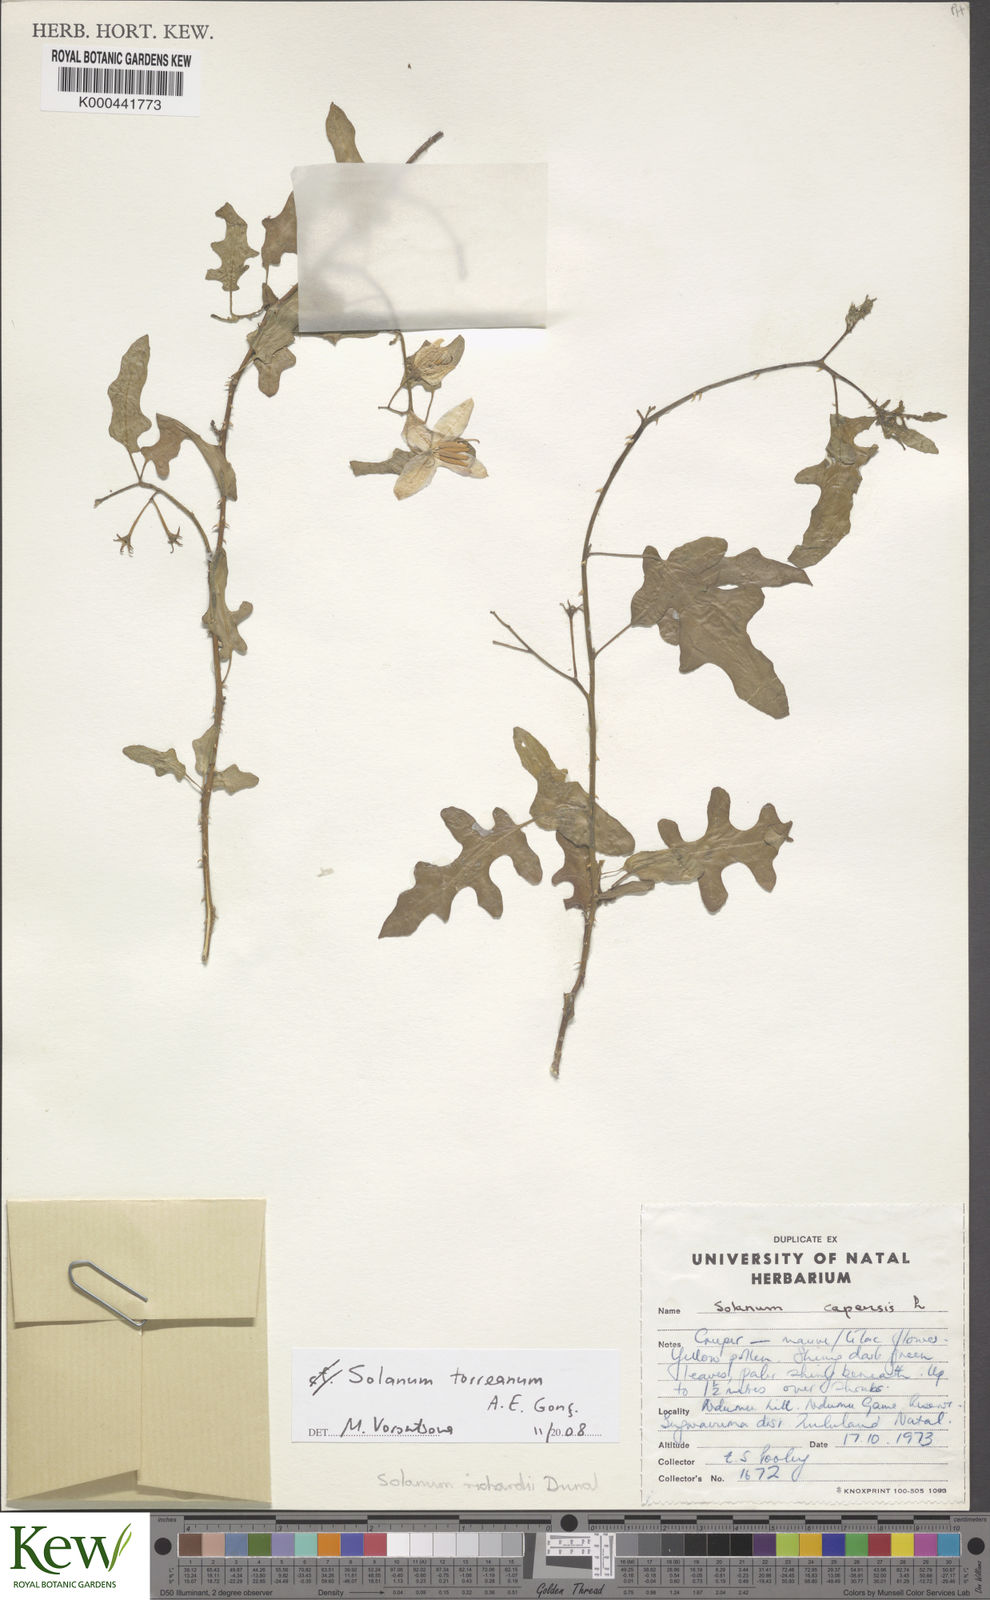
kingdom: Plantae
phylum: Tracheophyta
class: Magnoliopsida
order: Solanales
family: Solanaceae
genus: Solanum
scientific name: Solanum
